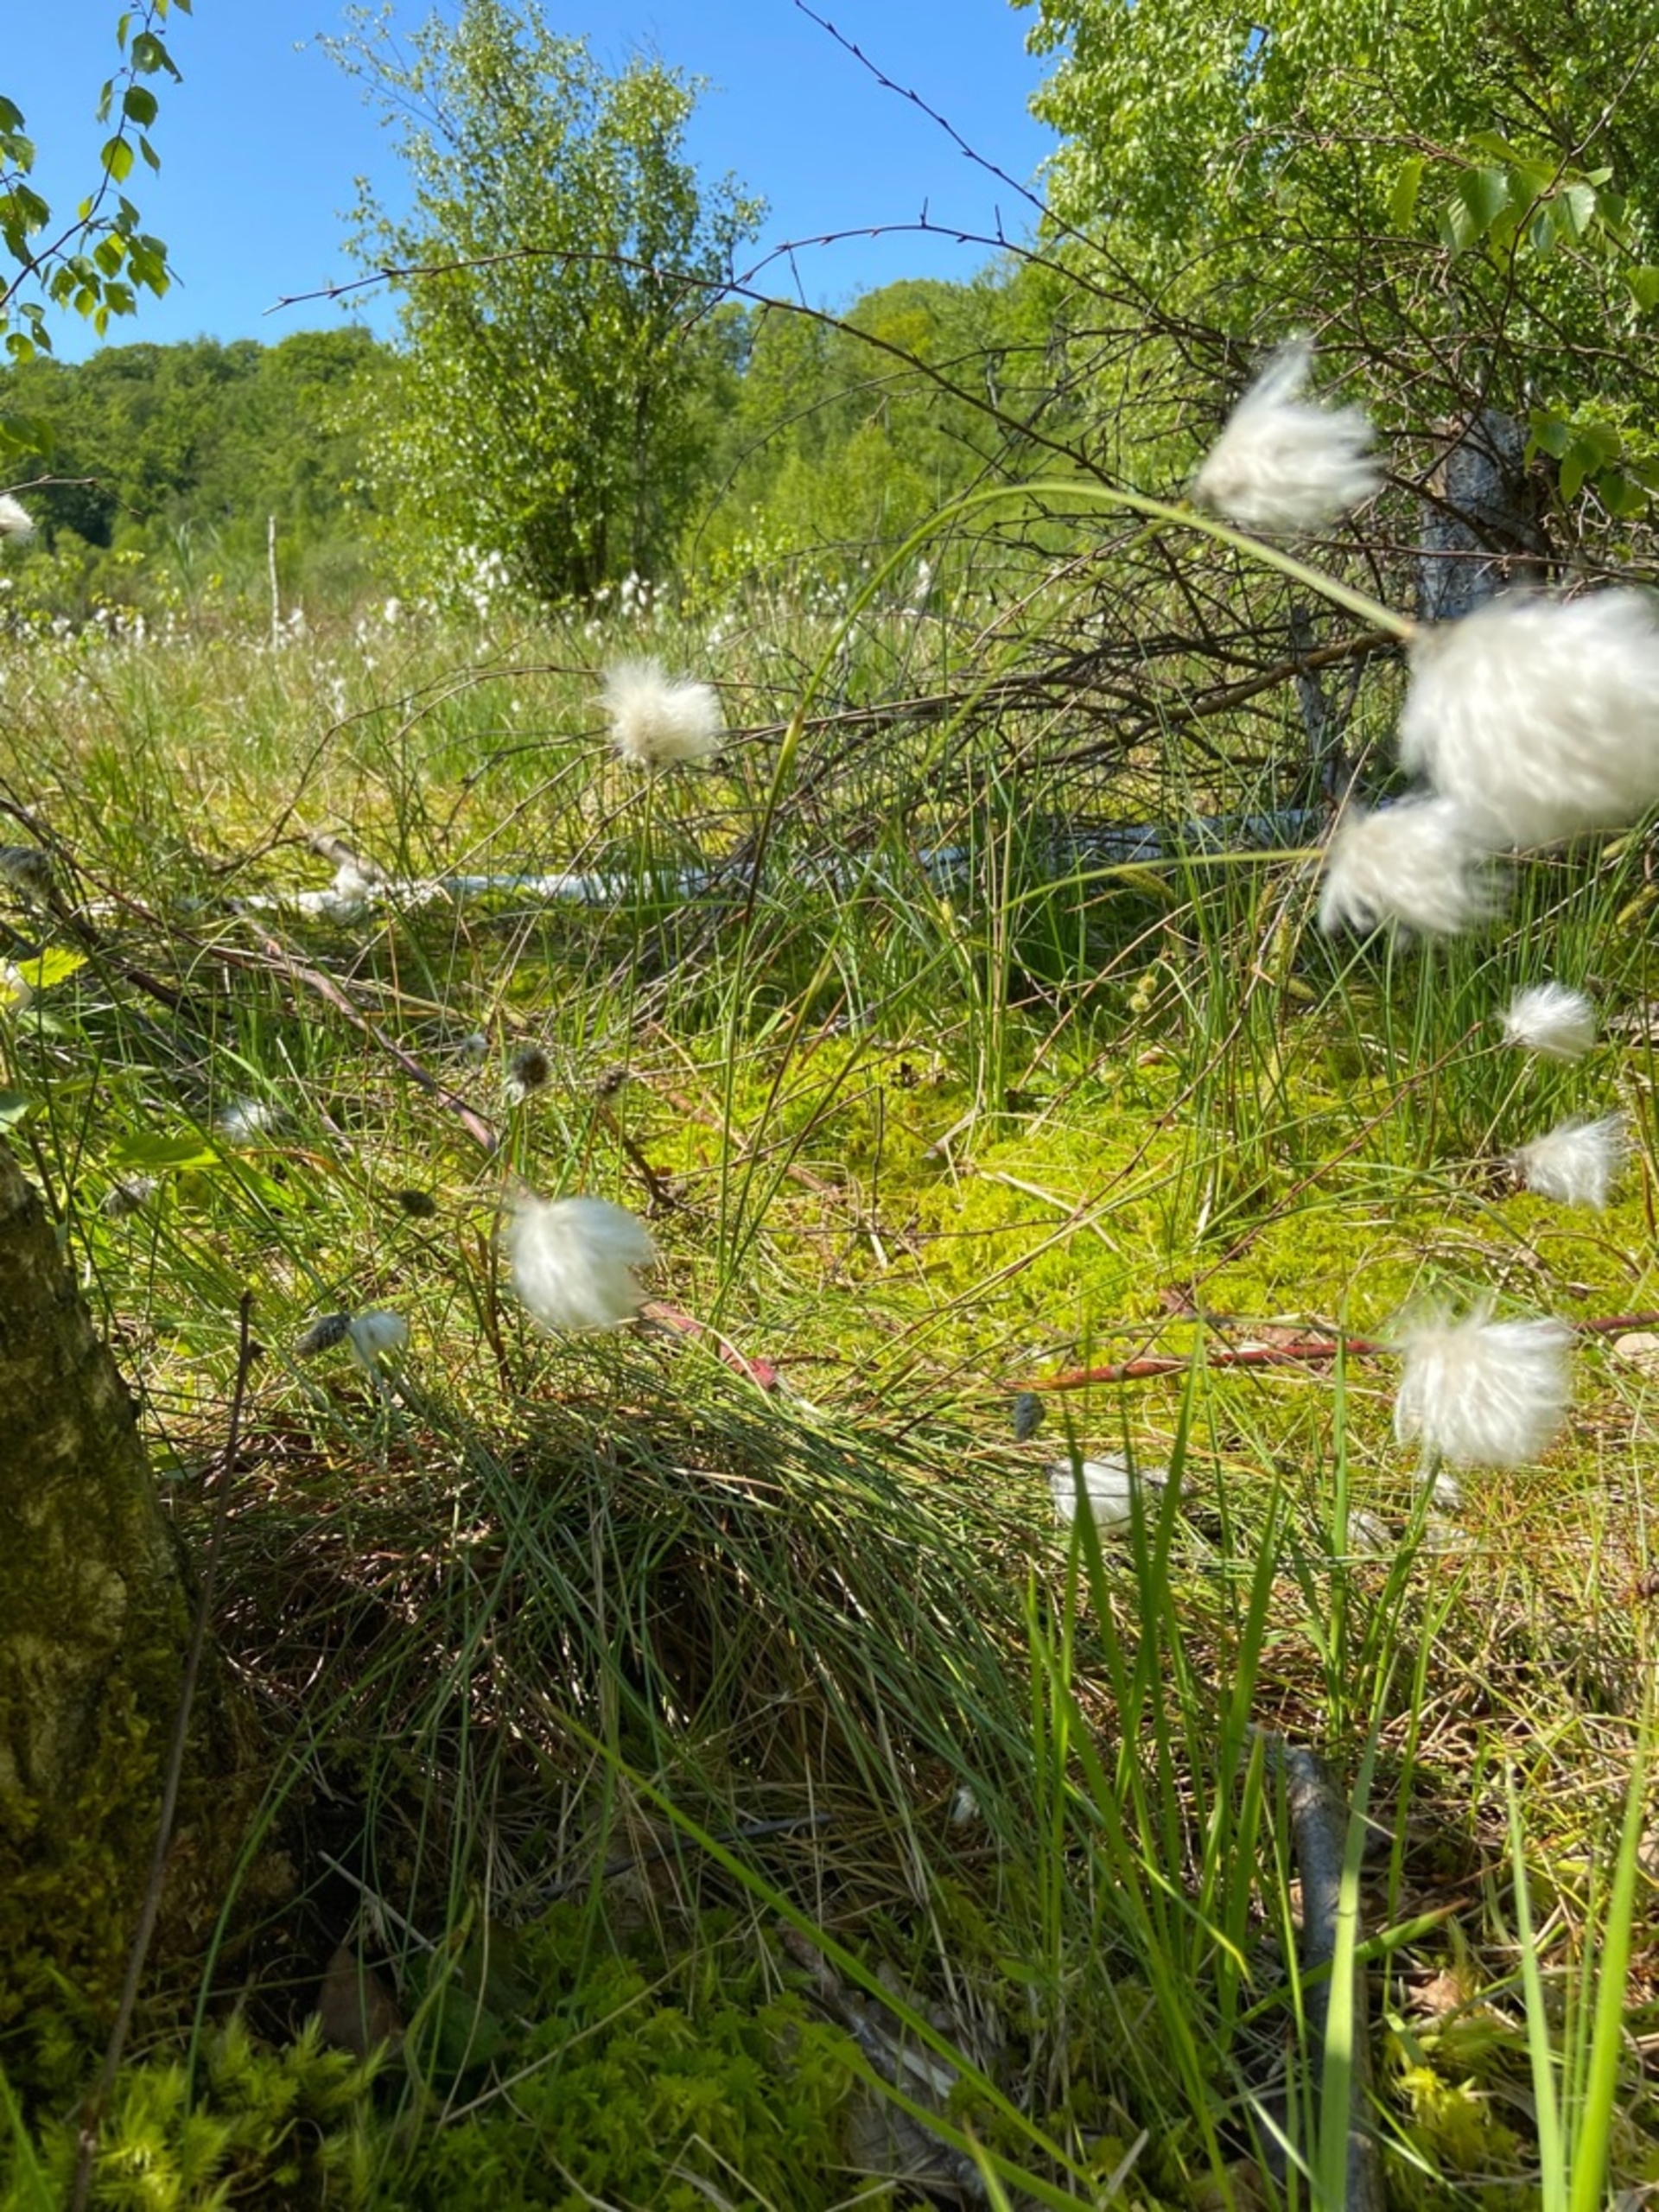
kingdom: Plantae
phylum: Tracheophyta
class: Liliopsida
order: Poales
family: Cyperaceae
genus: Eriophorum
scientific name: Eriophorum vaginatum
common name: Tue-kæruld
